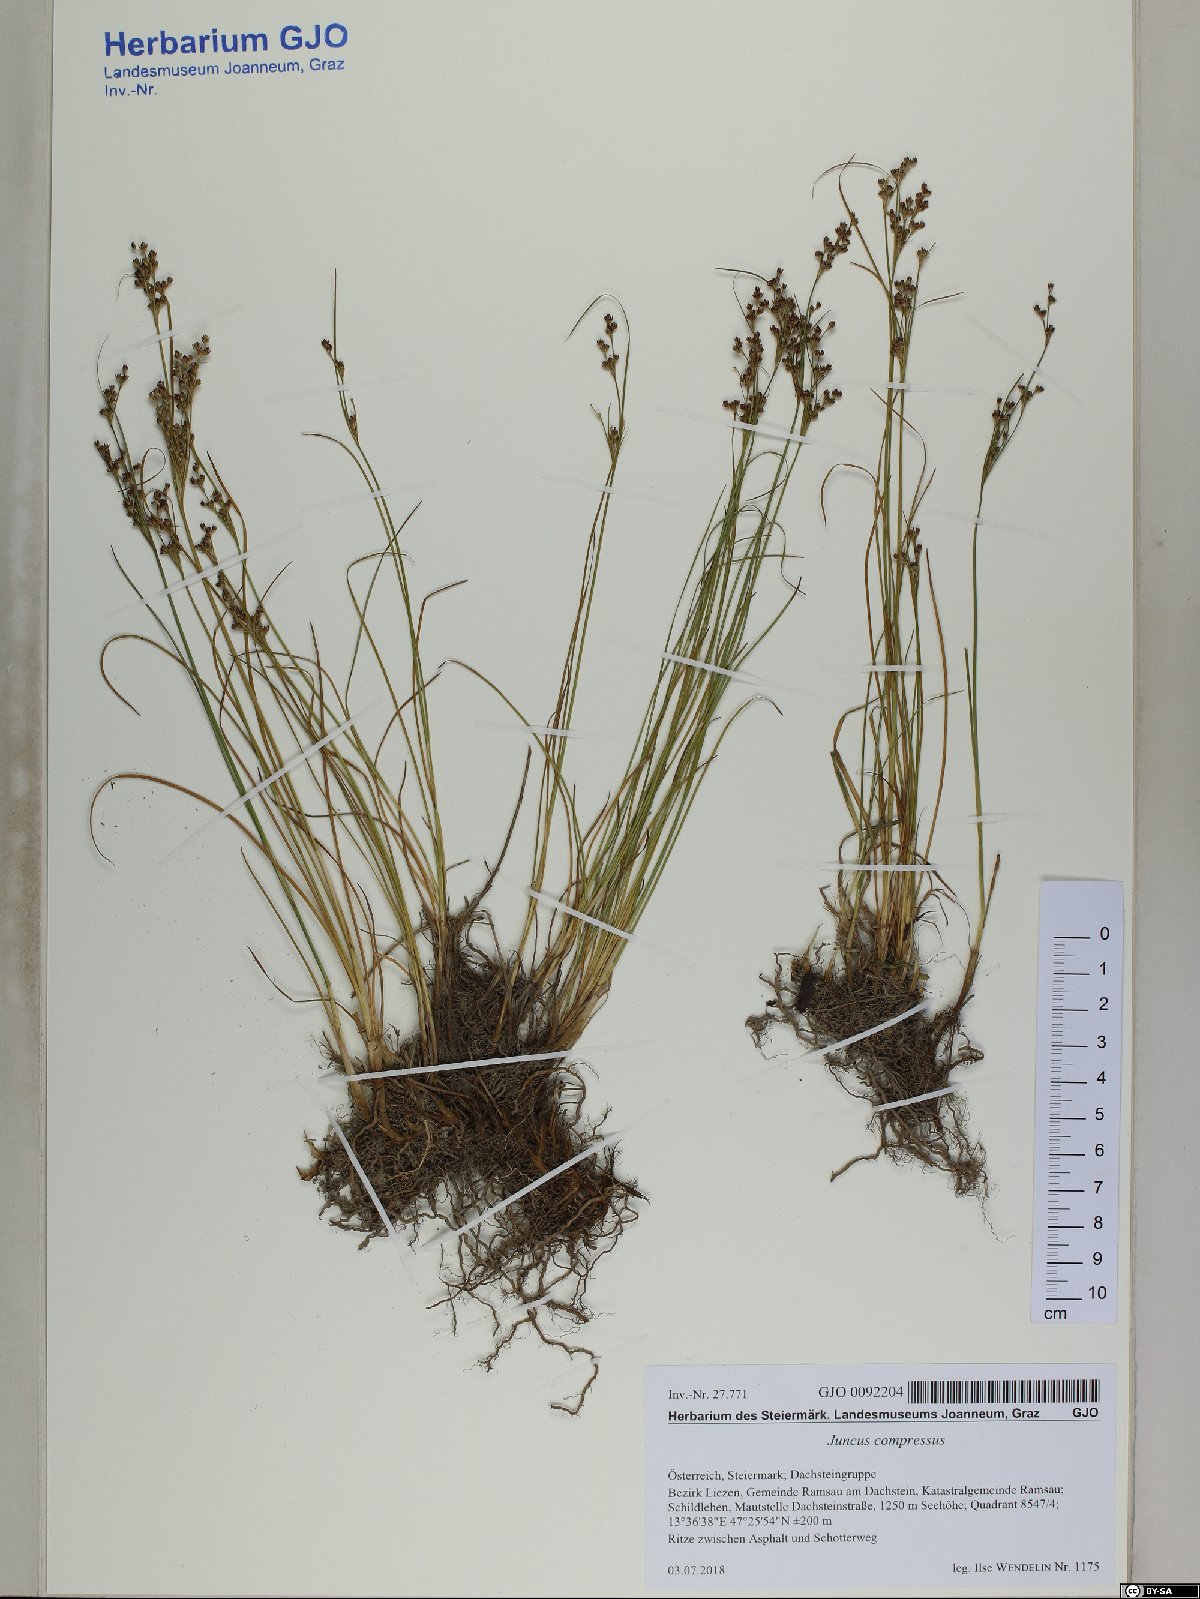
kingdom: Plantae
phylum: Tracheophyta
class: Liliopsida
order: Poales
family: Juncaceae
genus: Juncus
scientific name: Juncus compressus
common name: Round-fruited rush
